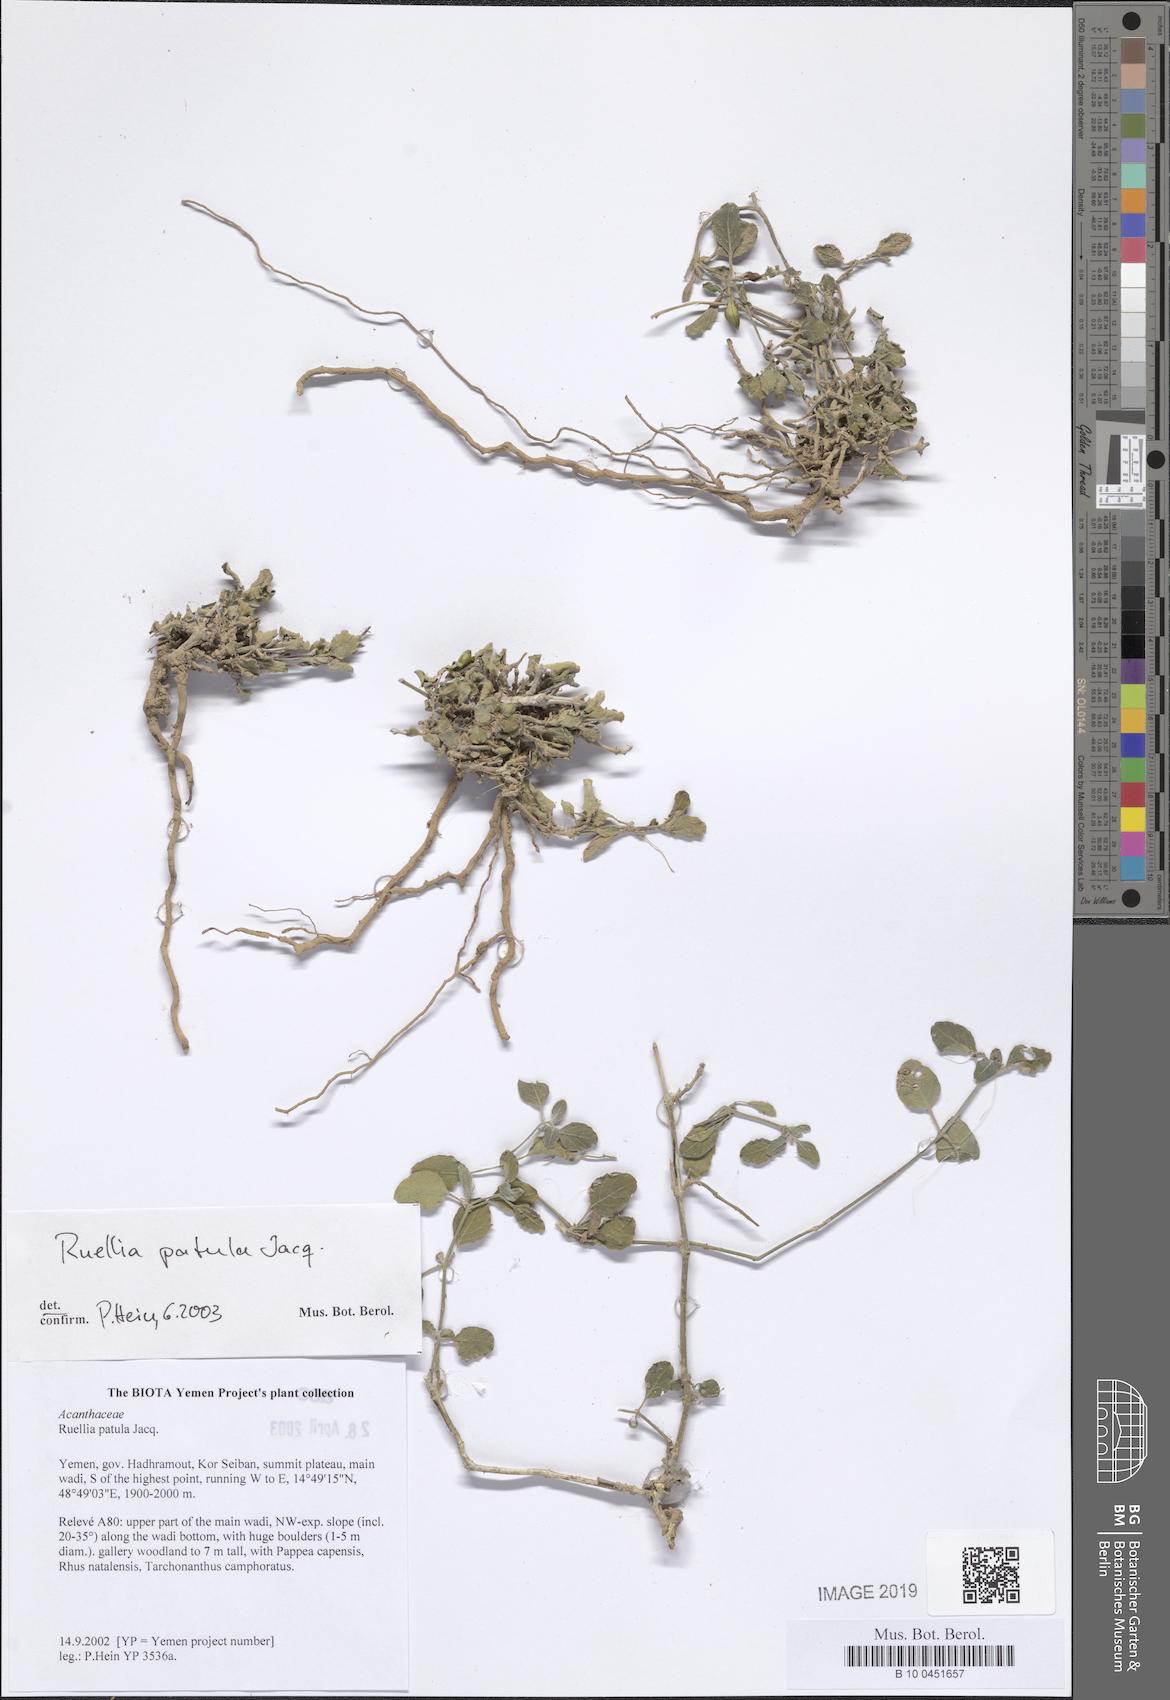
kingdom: Plantae
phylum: Tracheophyta
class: Magnoliopsida
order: Lamiales
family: Acanthaceae
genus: Ruellia
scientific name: Ruellia patula
